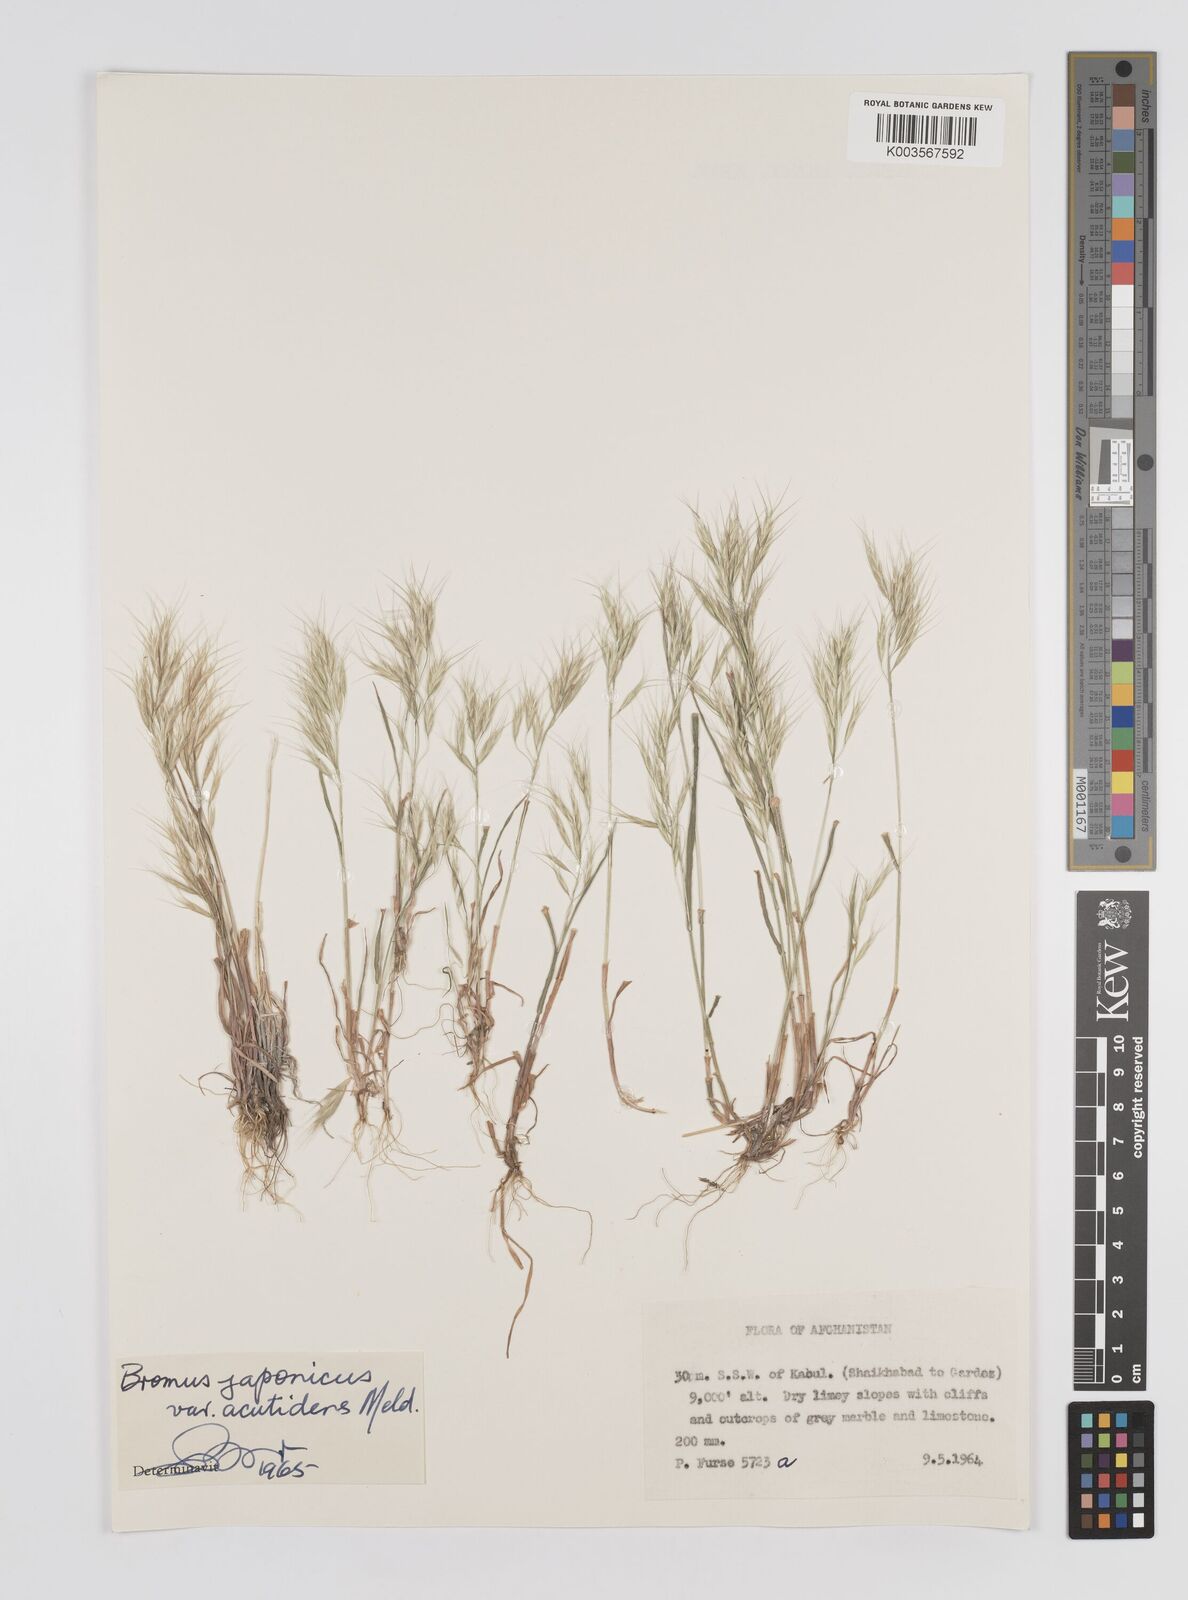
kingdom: Plantae
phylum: Tracheophyta
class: Liliopsida
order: Poales
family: Poaceae
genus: Bromus
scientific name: Bromus pectinatus
